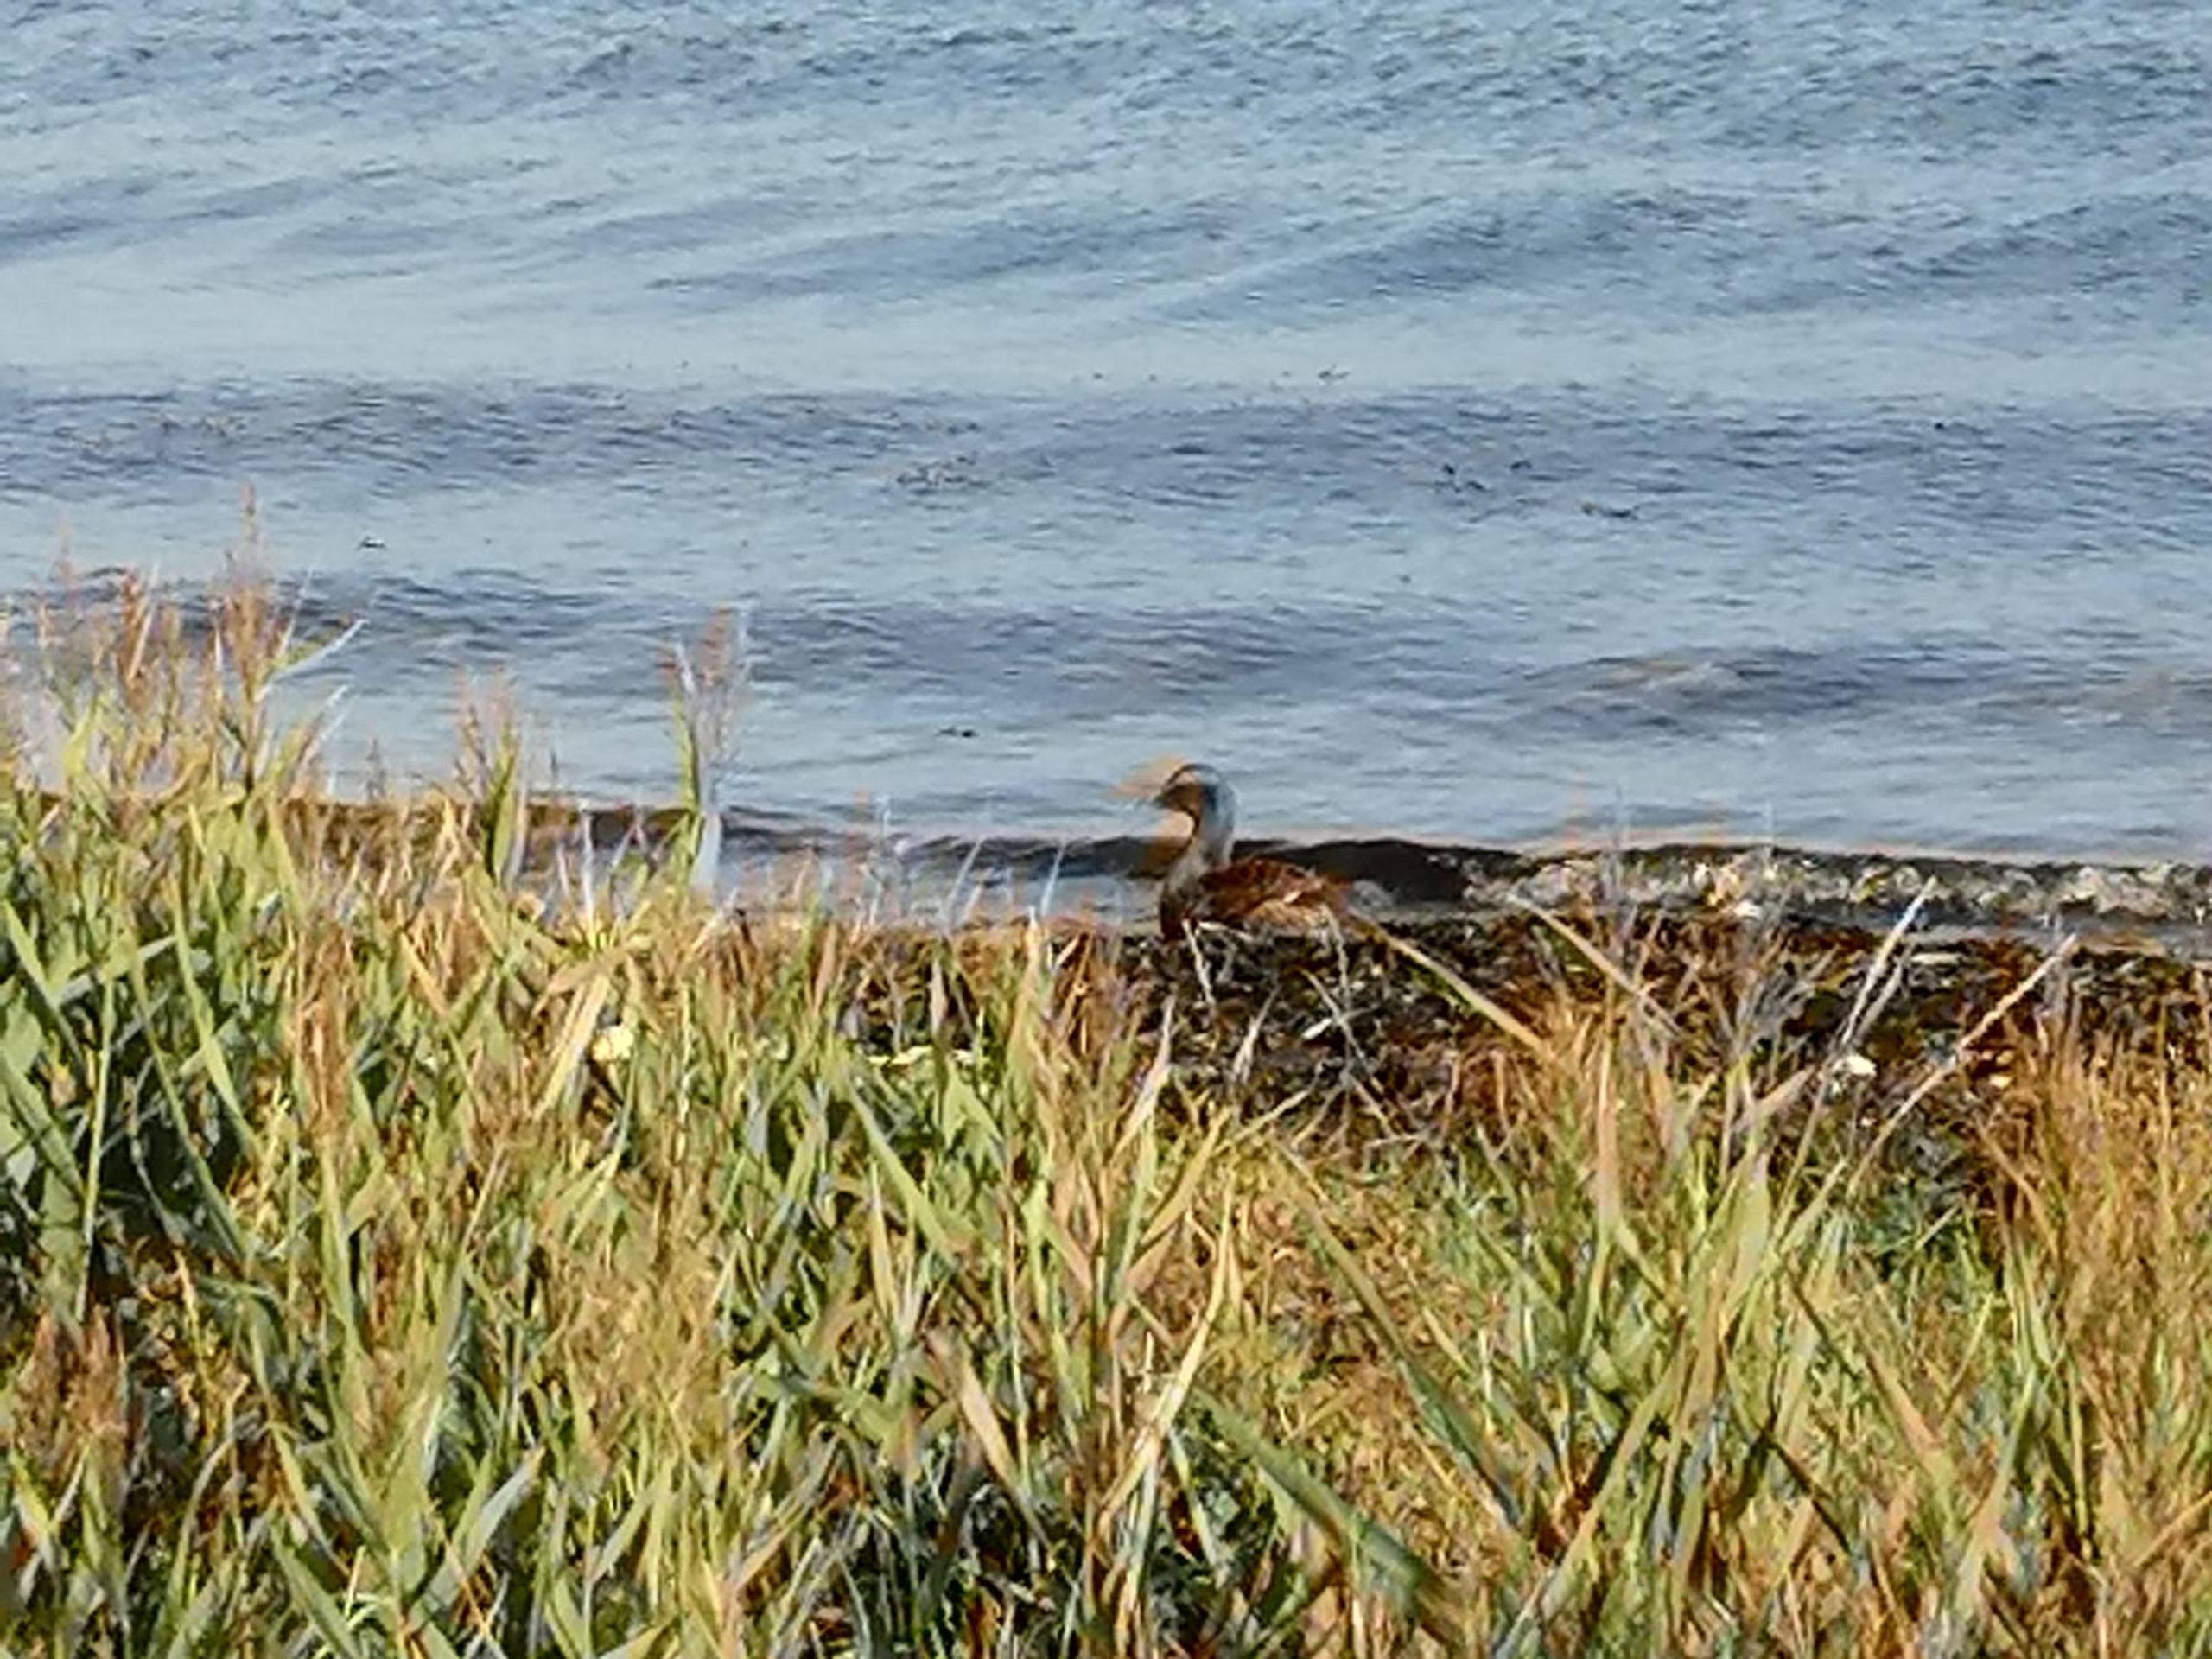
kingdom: Animalia
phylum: Chordata
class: Aves
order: Anseriformes
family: Anatidae
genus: Somateria
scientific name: Somateria mollissima
